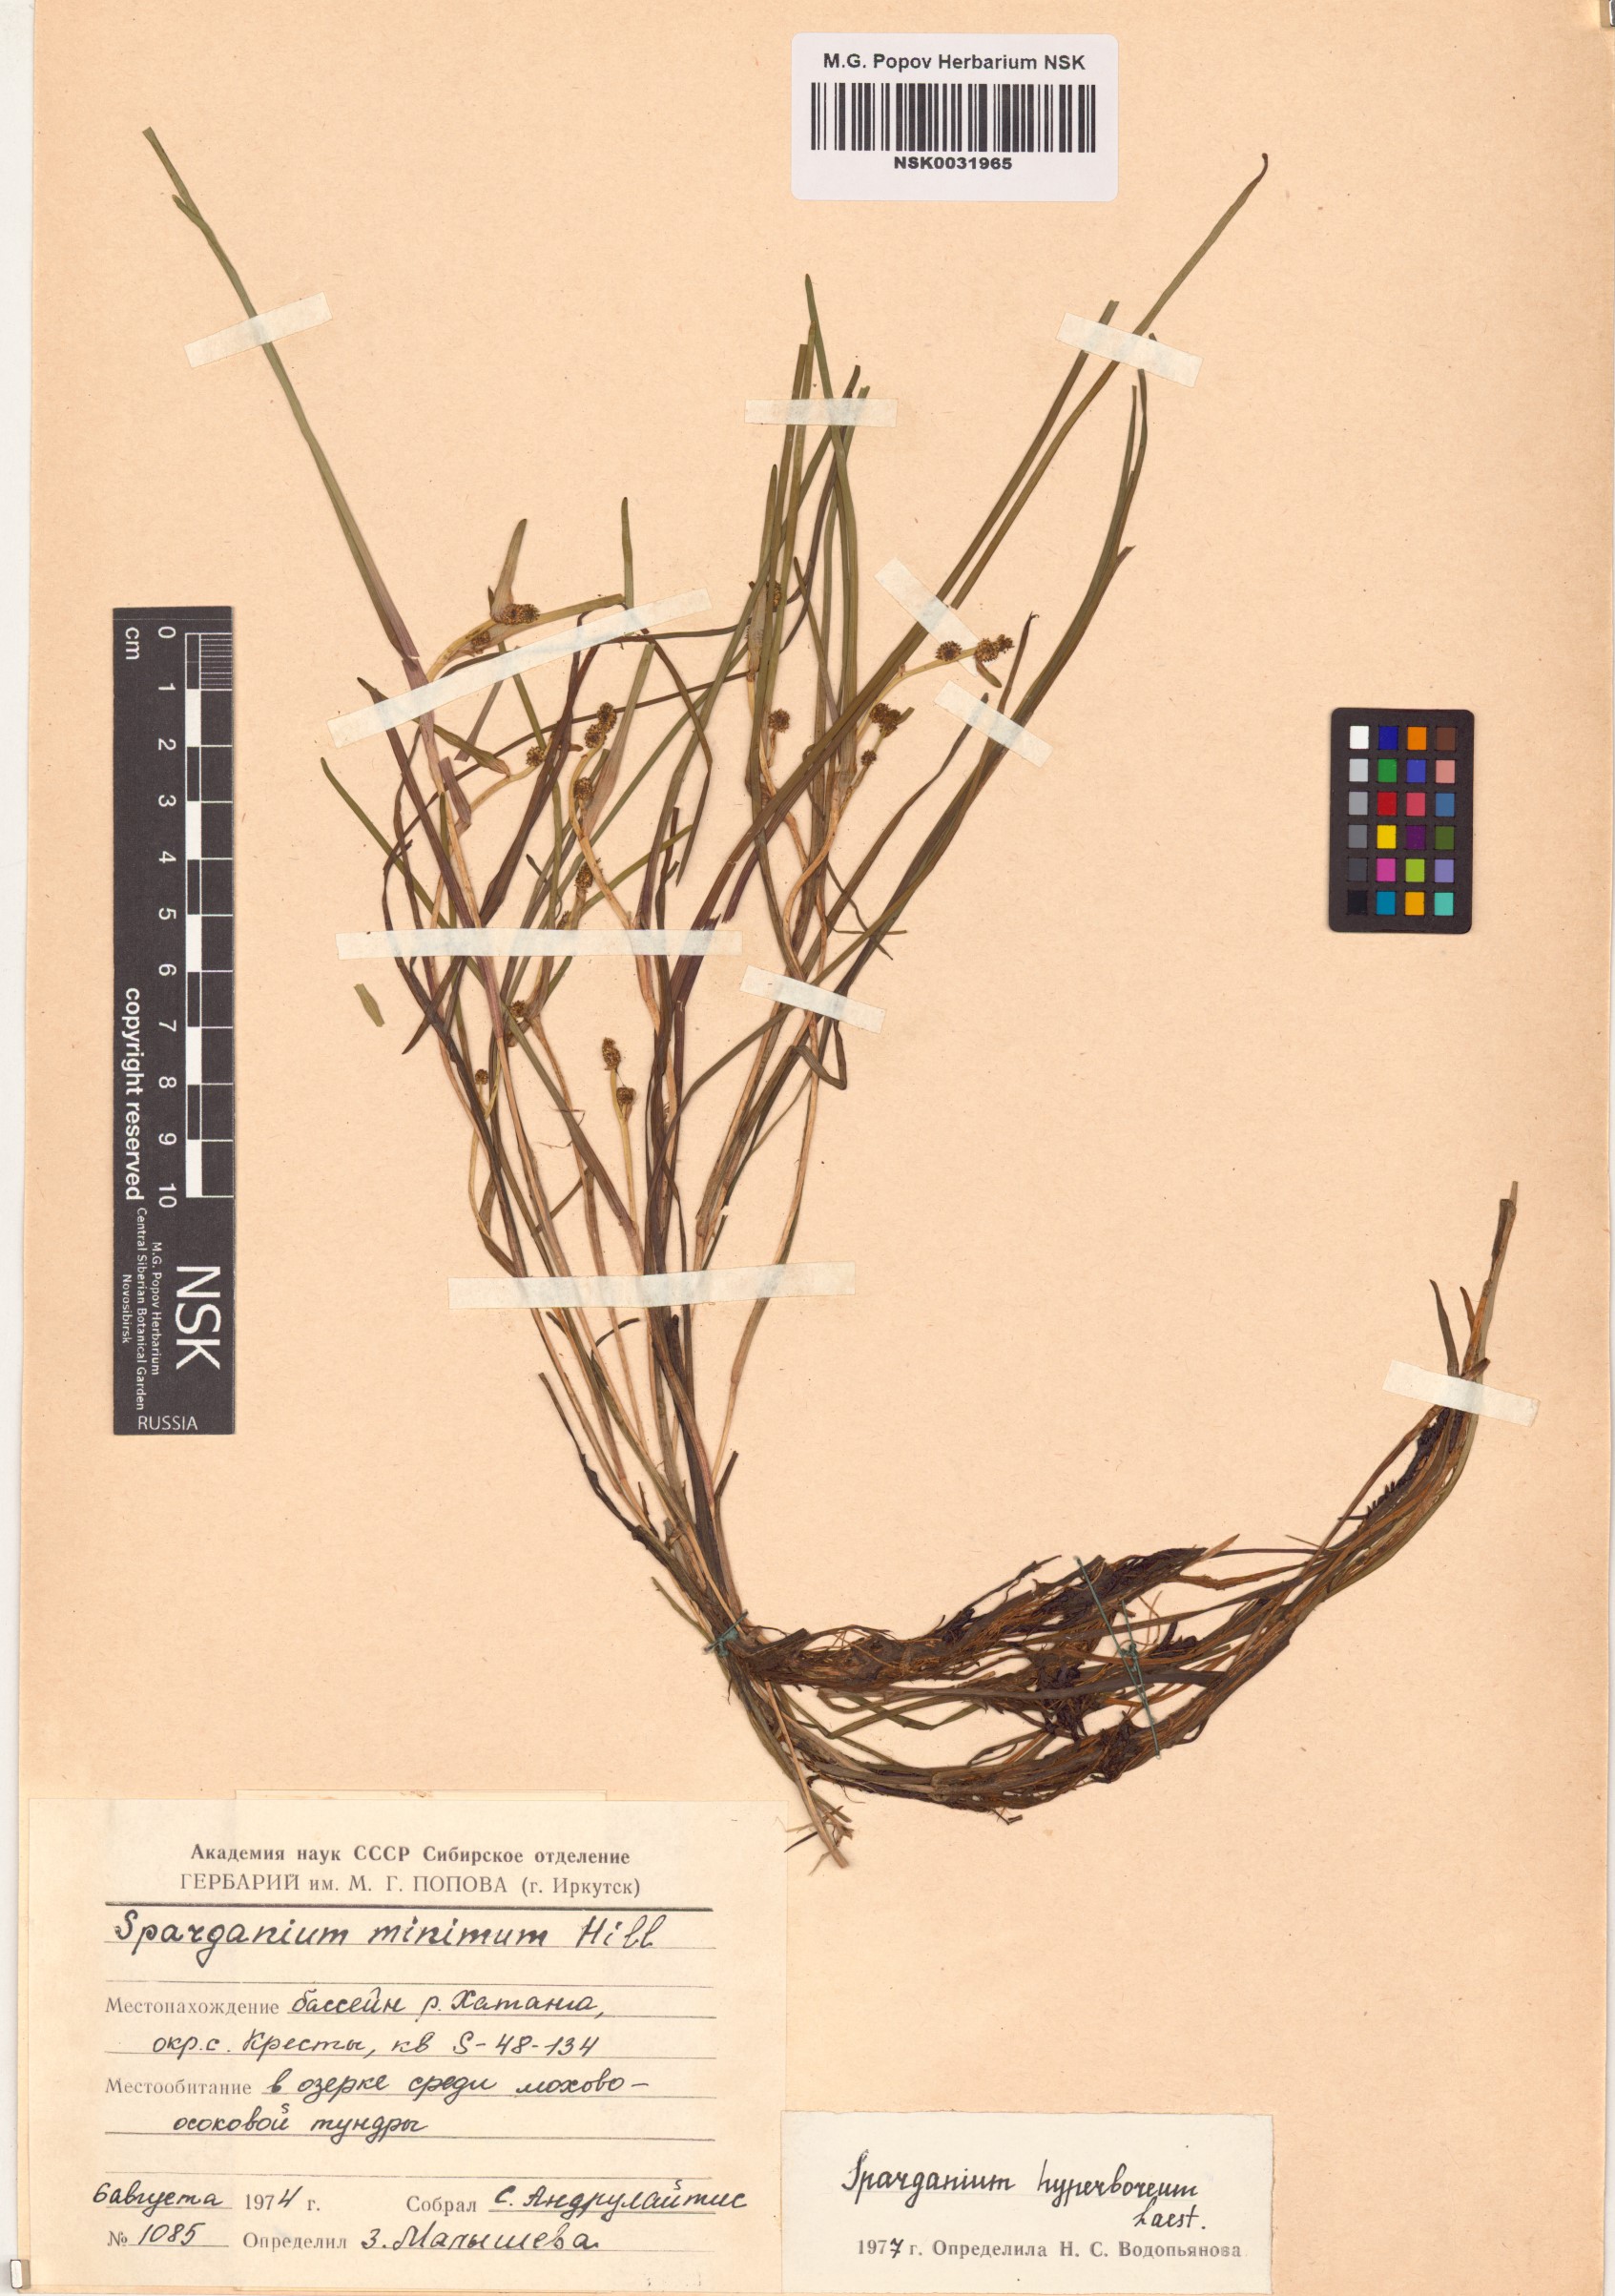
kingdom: Plantae
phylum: Tracheophyta
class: Liliopsida
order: Poales
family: Typhaceae
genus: Sparganium
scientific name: Sparganium hyperboreum
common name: Arctic burreed
